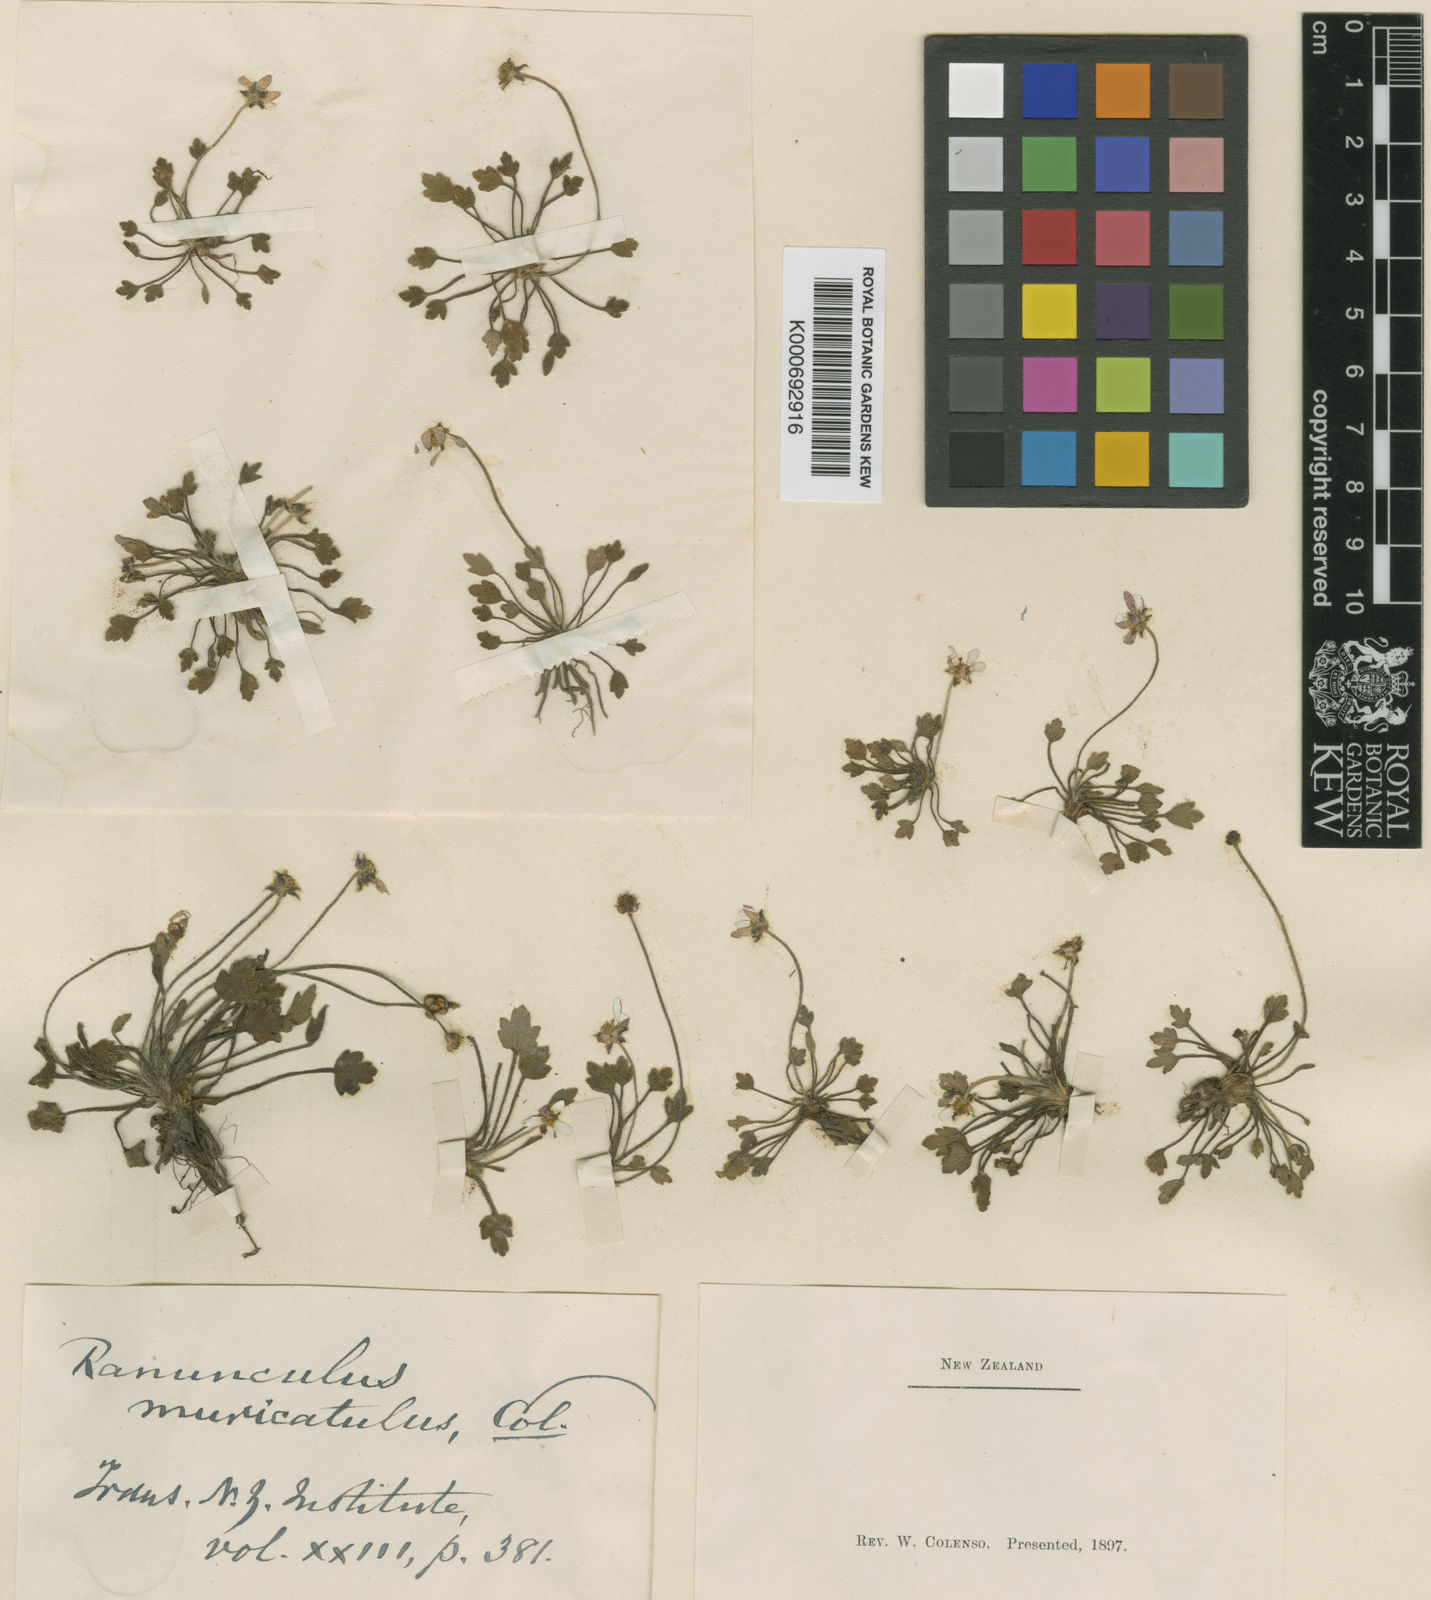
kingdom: Plantae
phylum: Tracheophyta
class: Magnoliopsida
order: Ranunculales
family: Ranunculaceae
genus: Ranunculus
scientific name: Ranunculus lappaceus
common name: Australian buttercup
